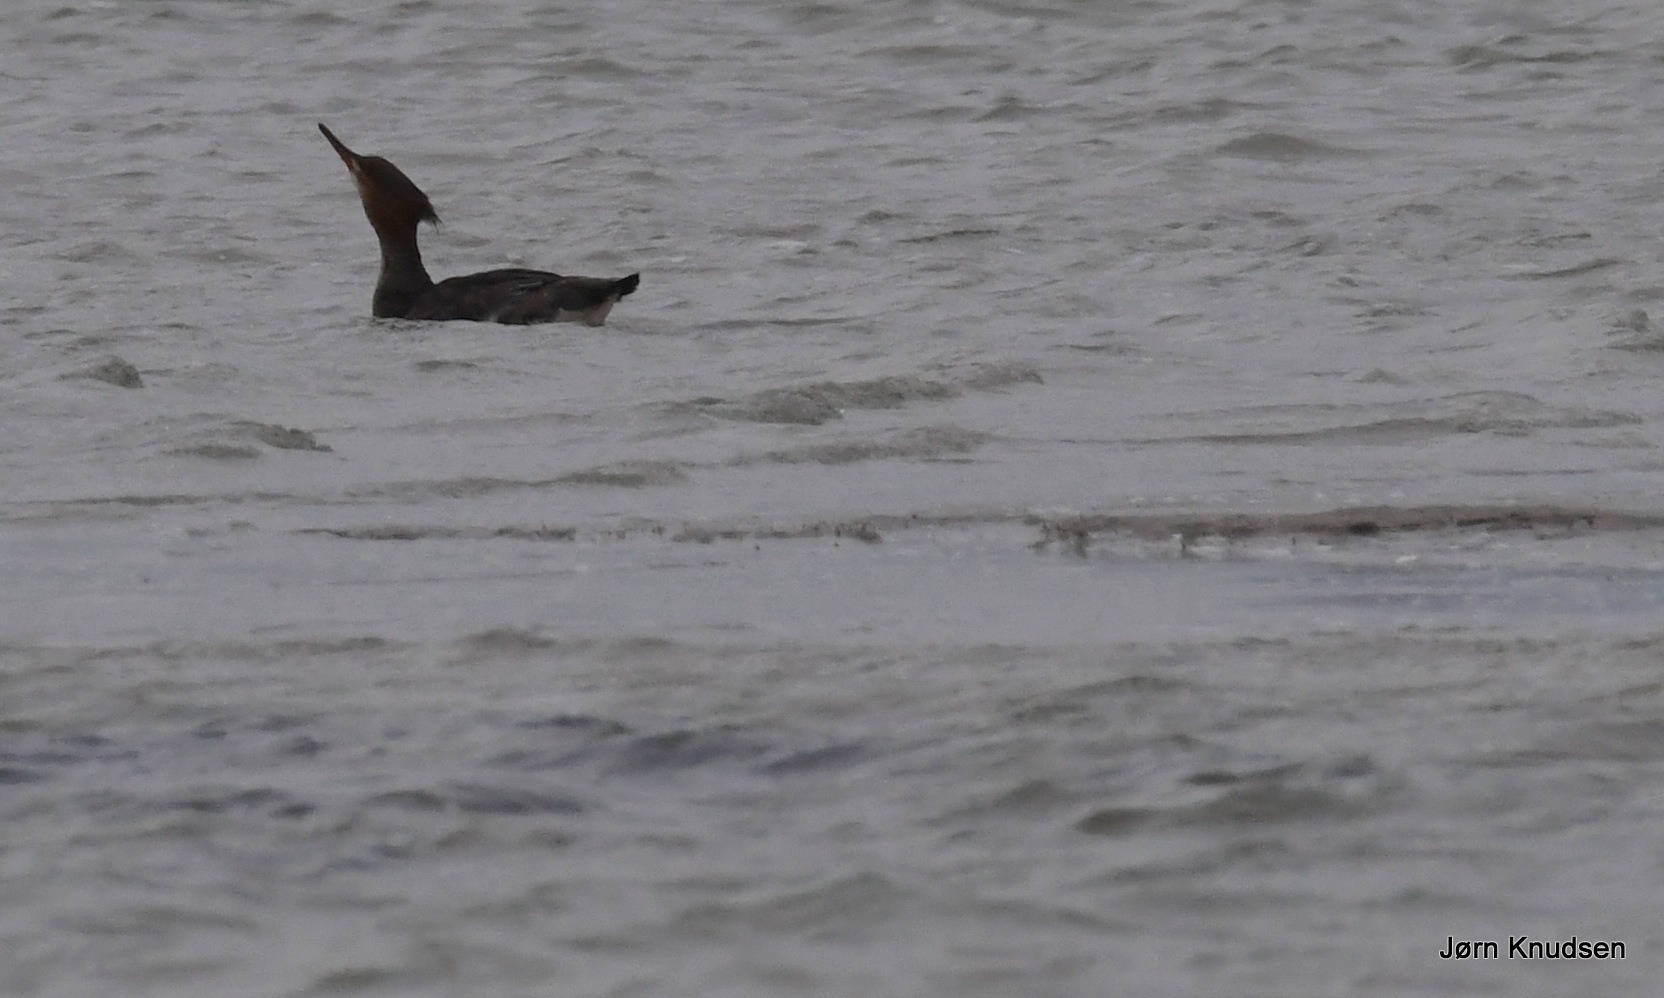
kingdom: Animalia
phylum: Chordata
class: Aves
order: Anseriformes
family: Anatidae
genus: Mergus
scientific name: Mergus serrator
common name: Toppet skallesluger
